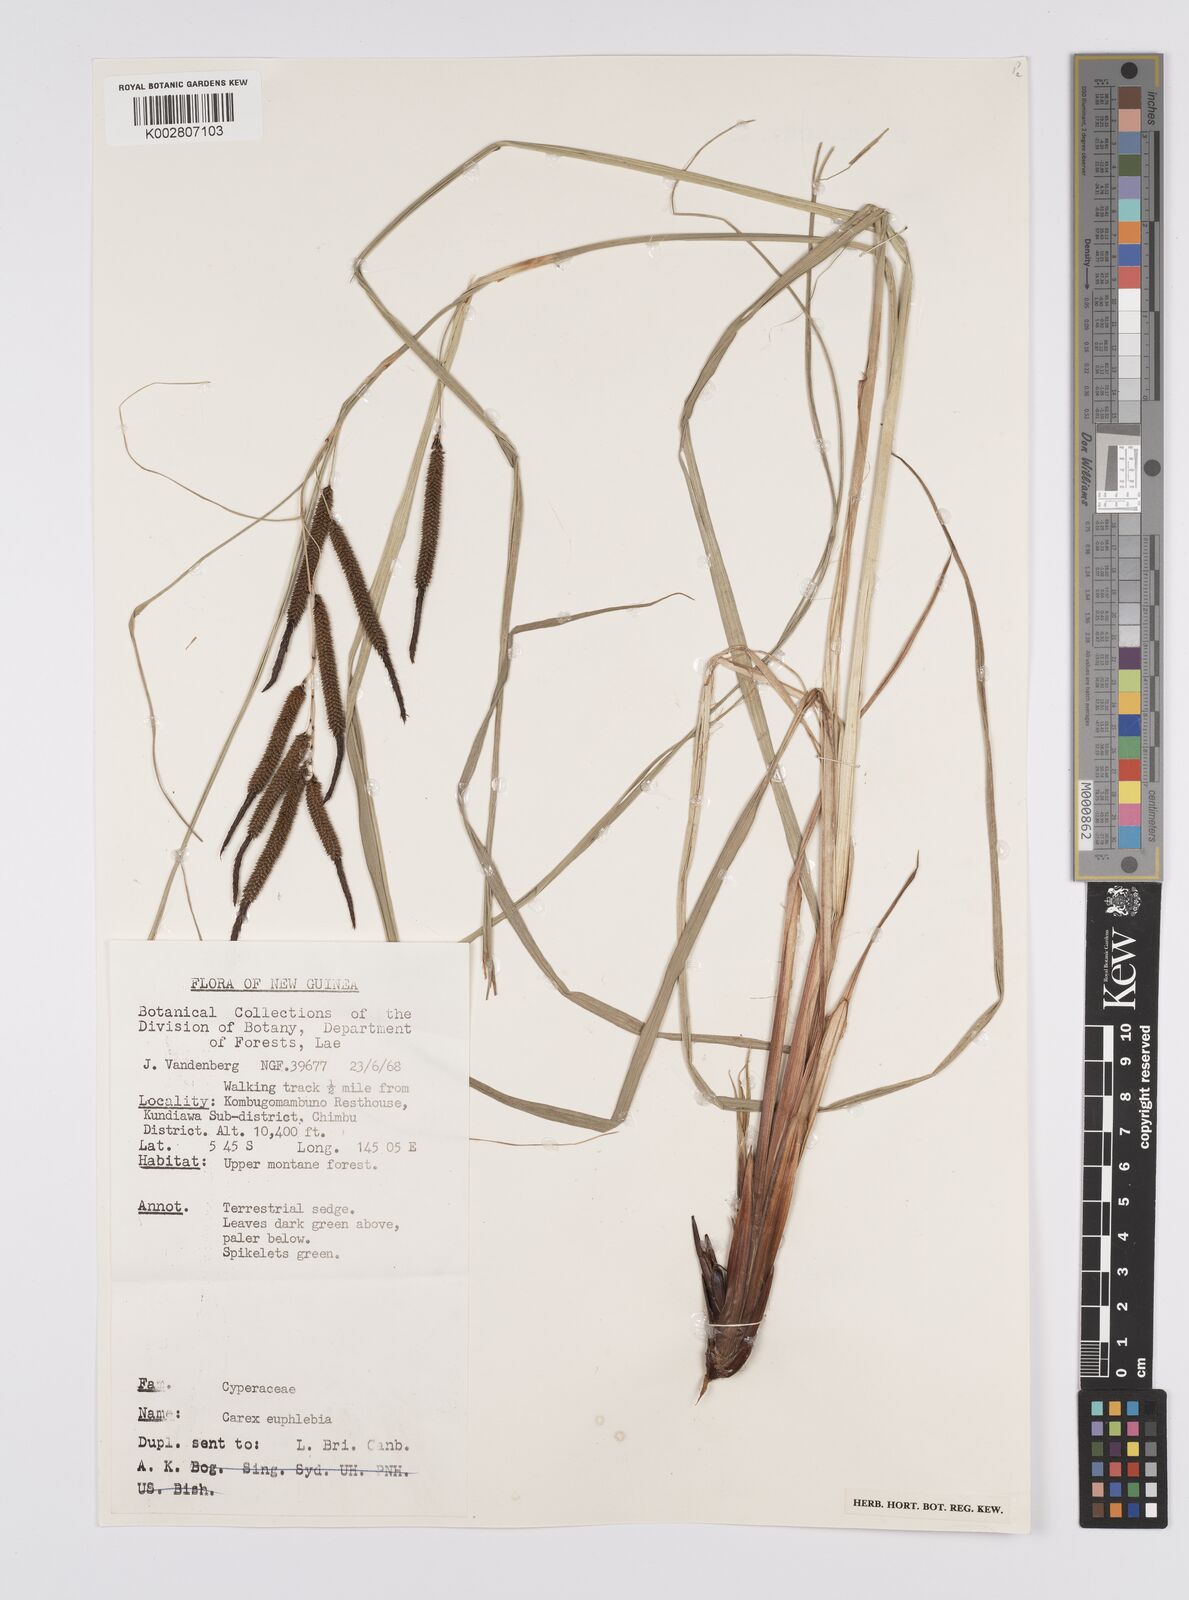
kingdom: Plantae
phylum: Tracheophyta
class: Liliopsida
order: Poales
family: Cyperaceae
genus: Carex
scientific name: Carex graeffeana
